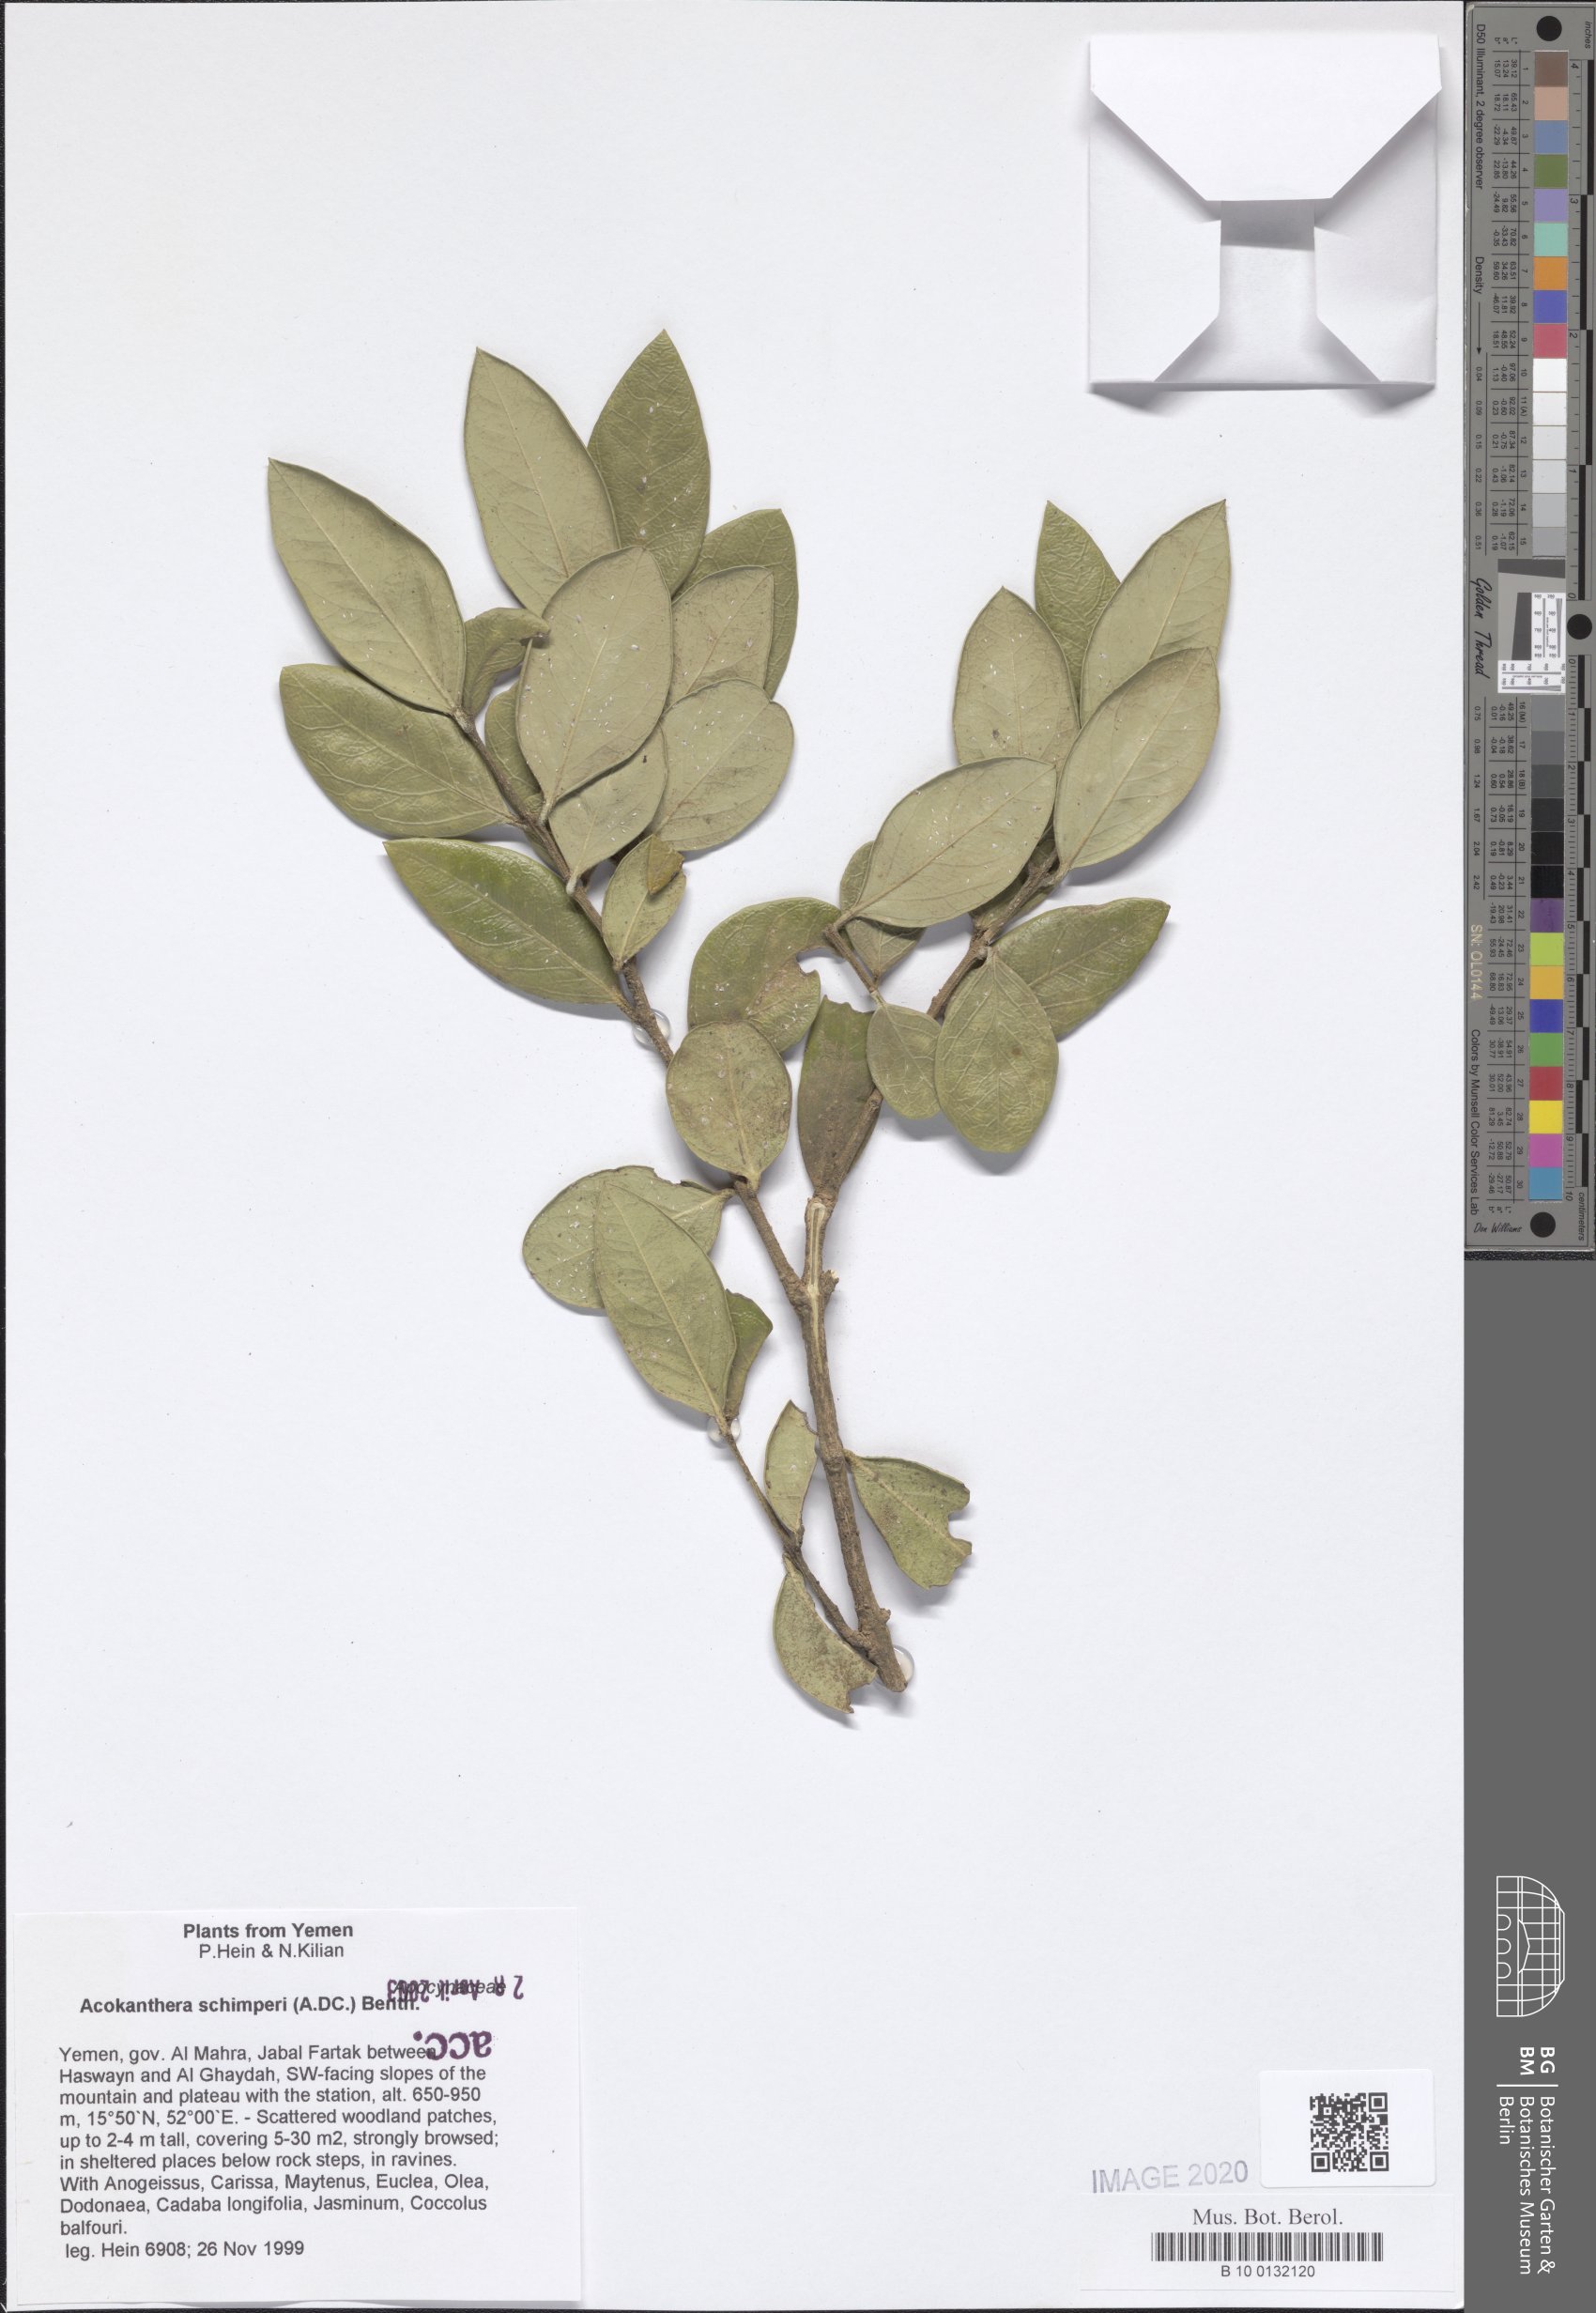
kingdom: Plantae
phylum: Tracheophyta
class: Magnoliopsida
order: Gentianales
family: Apocynaceae
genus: Acokanthera
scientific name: Acokanthera schimperi
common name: Arrow-poison-tree
